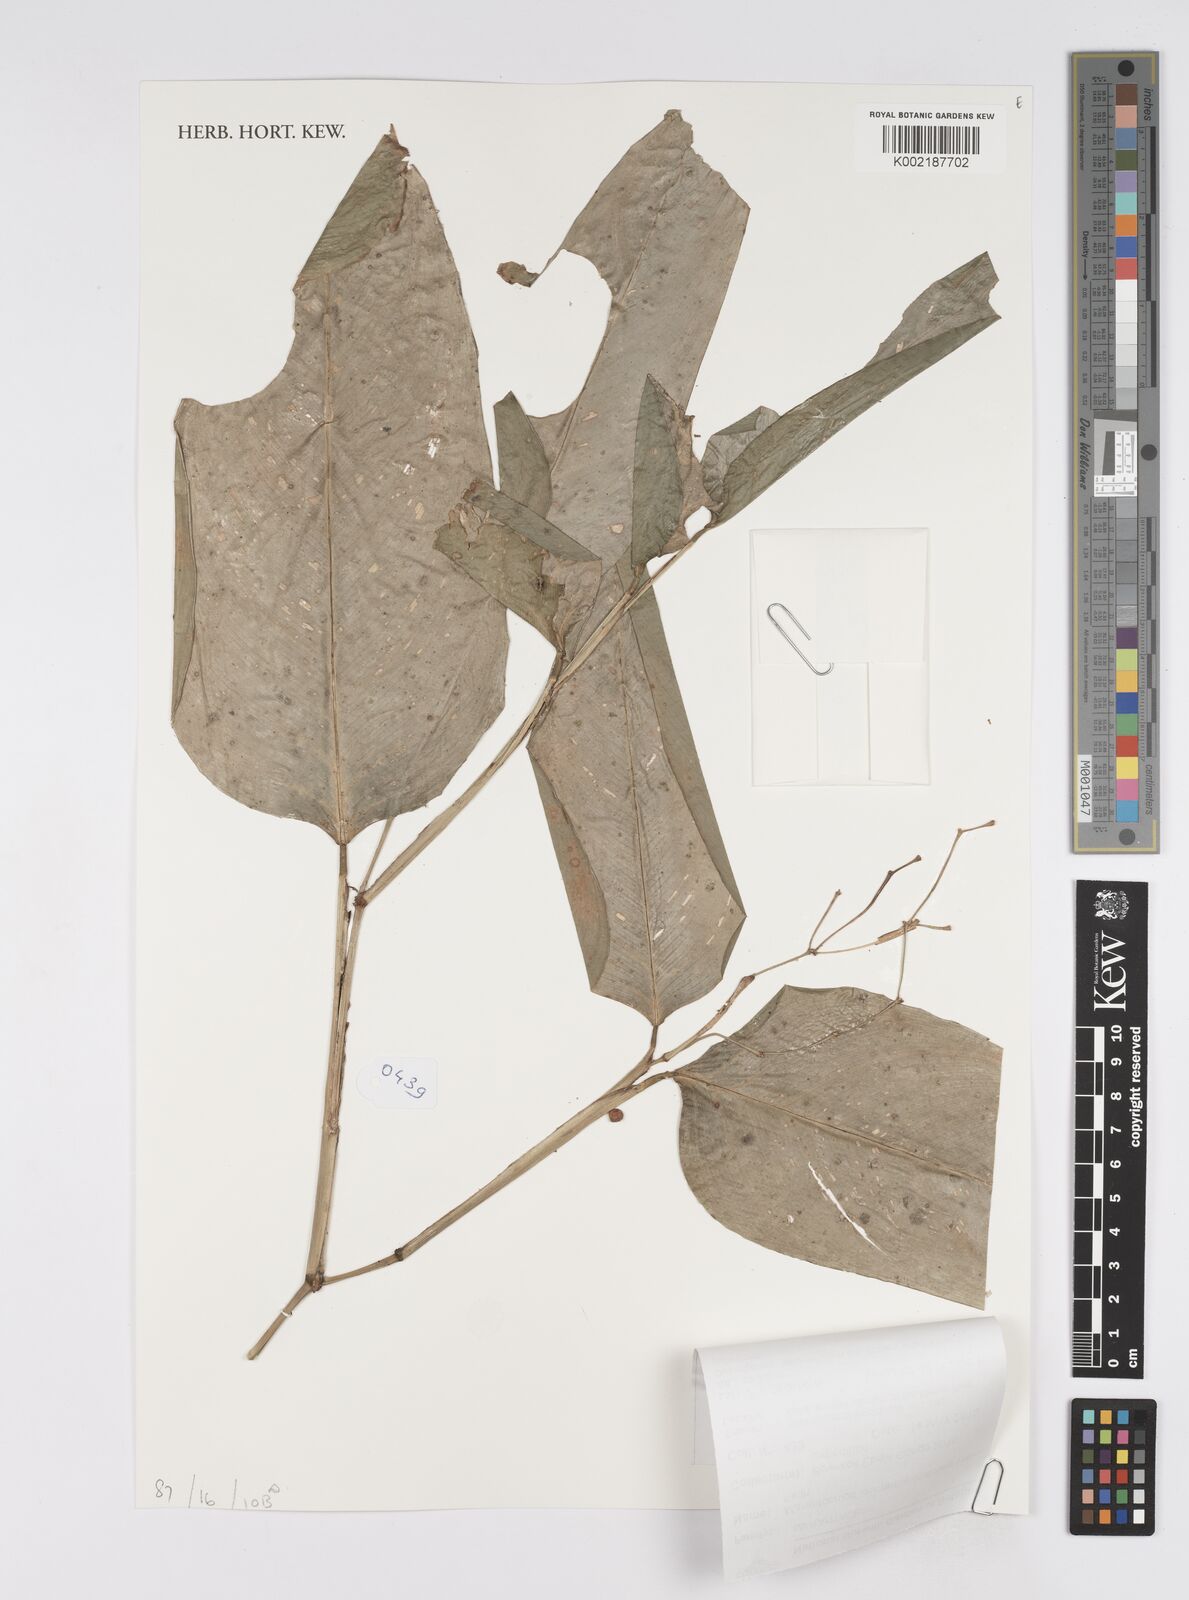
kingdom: Plantae
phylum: Tracheophyta
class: Liliopsida
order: Zingiberales
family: Marantaceae
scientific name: Marantaceae
